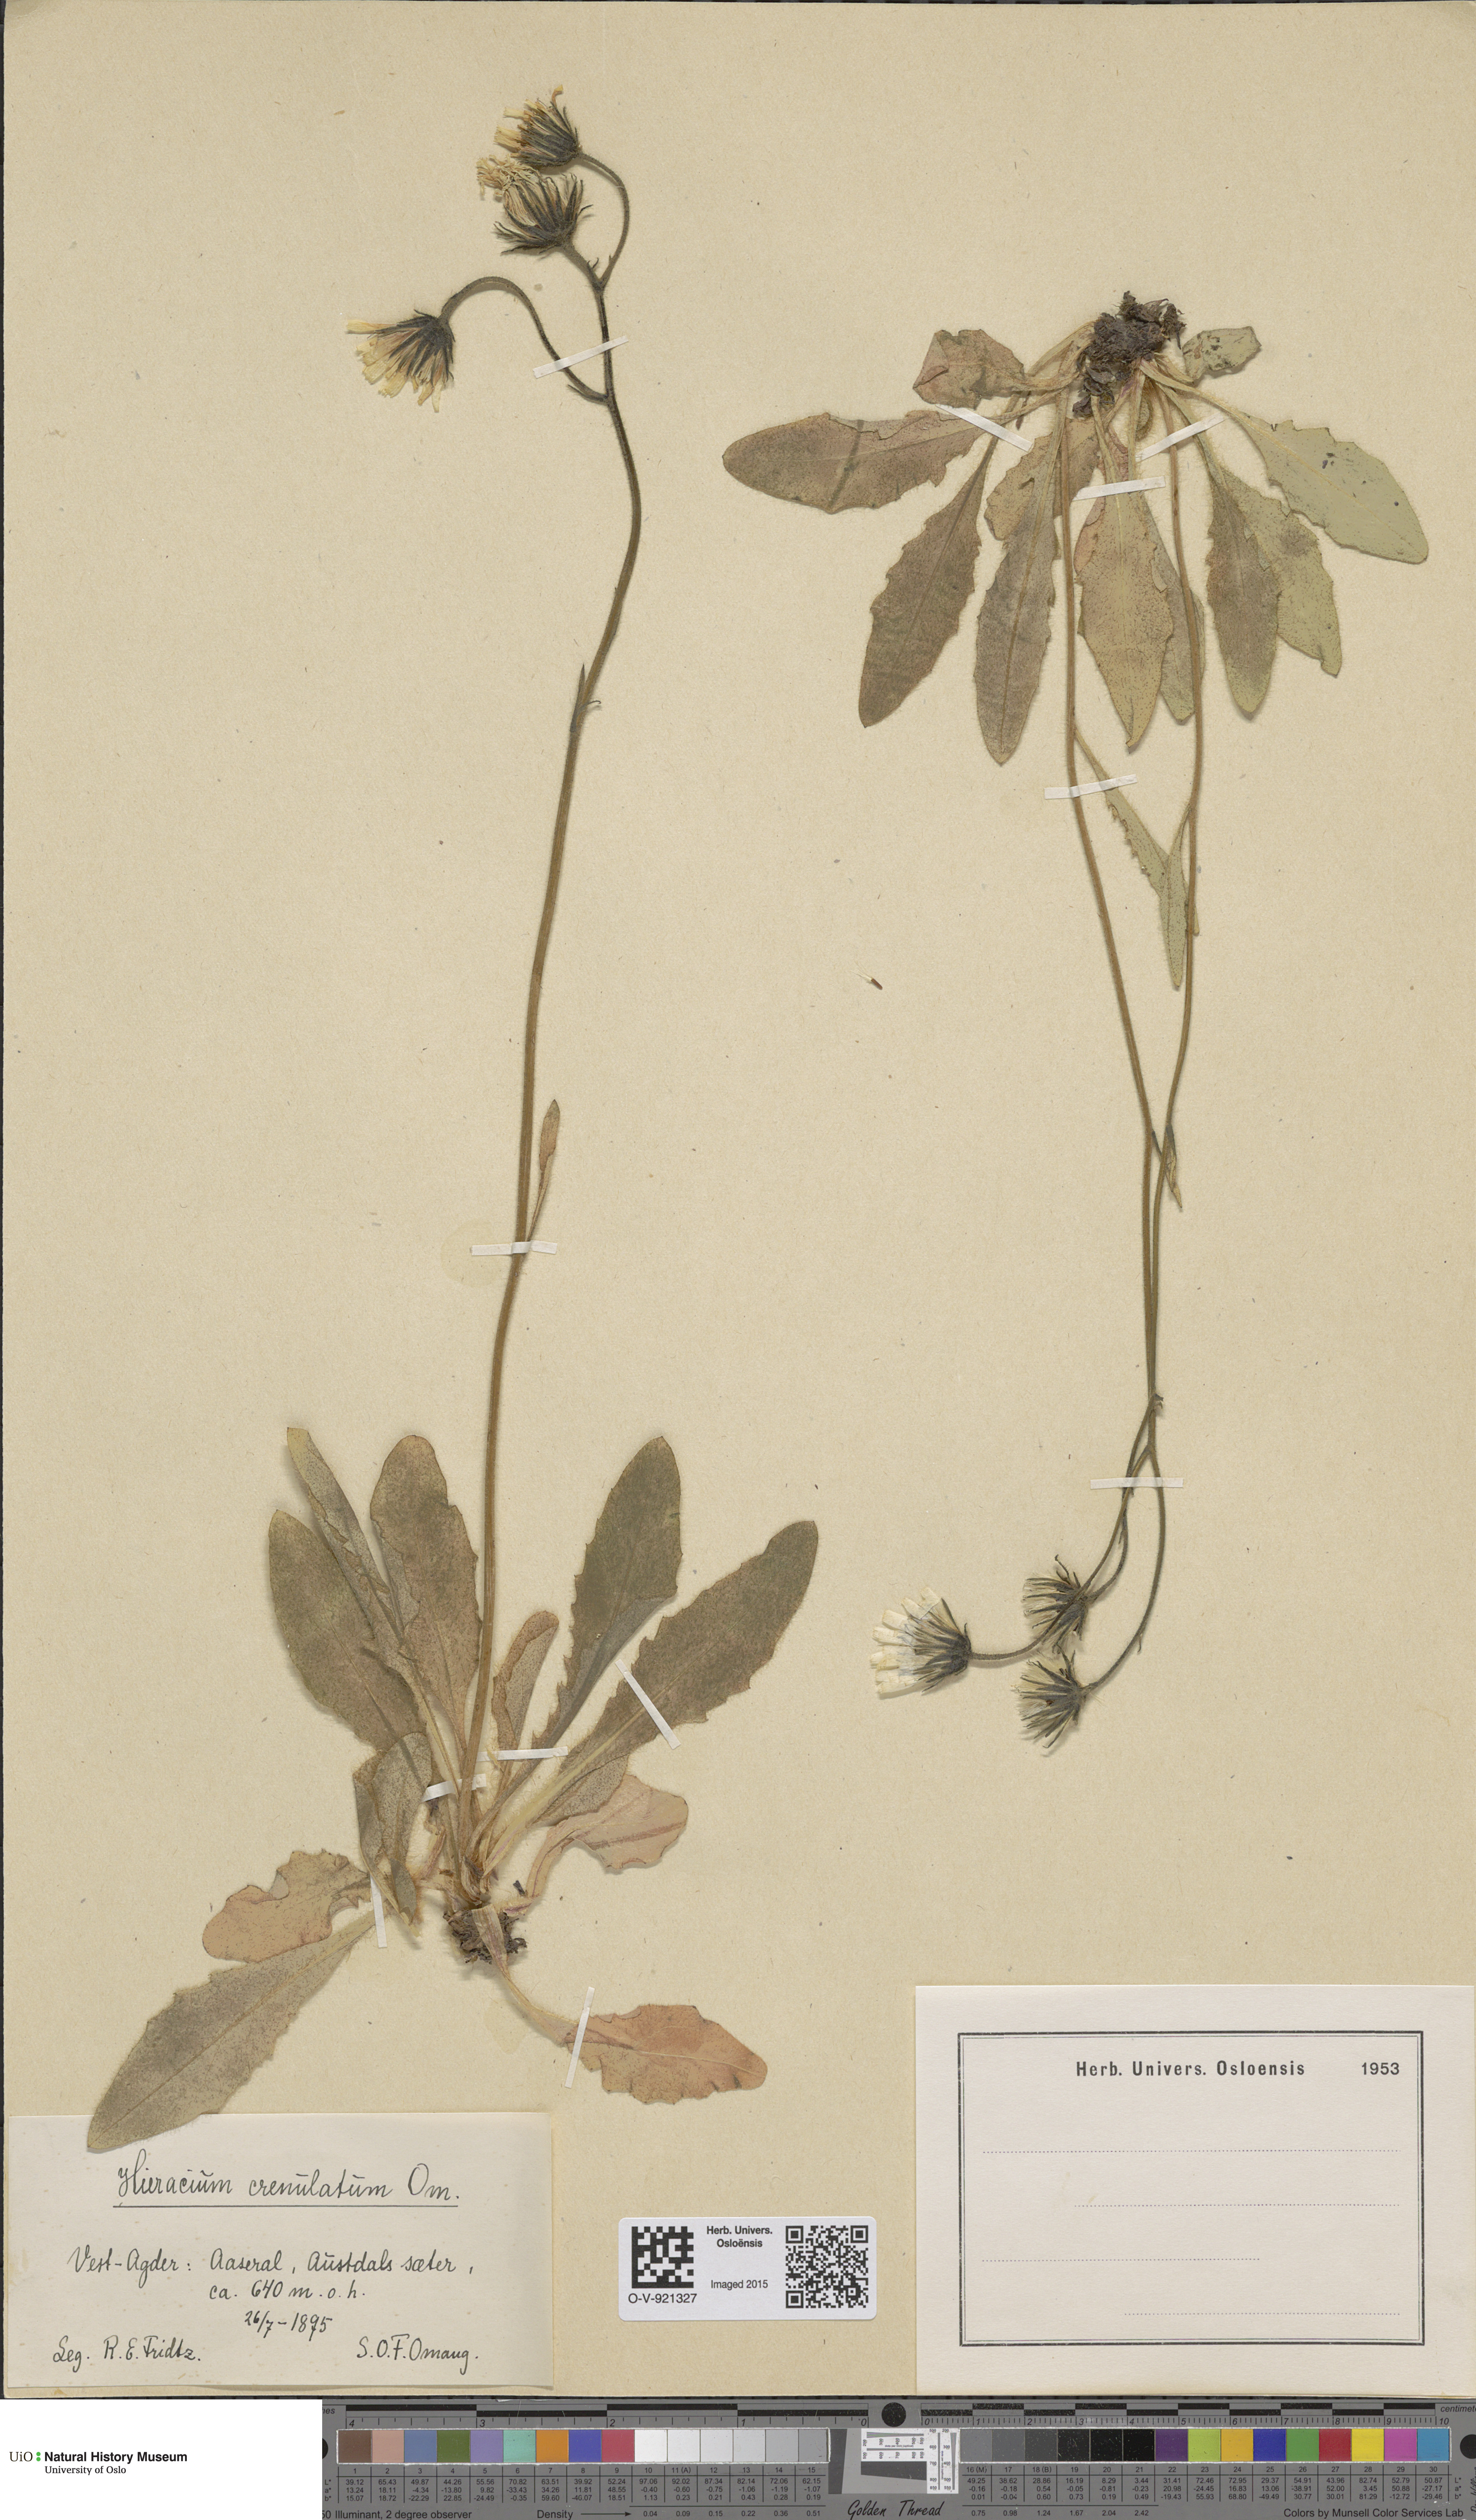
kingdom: Plantae
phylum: Tracheophyta
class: Magnoliopsida
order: Asterales
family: Asteraceae
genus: Hieracium
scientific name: Hieracium
